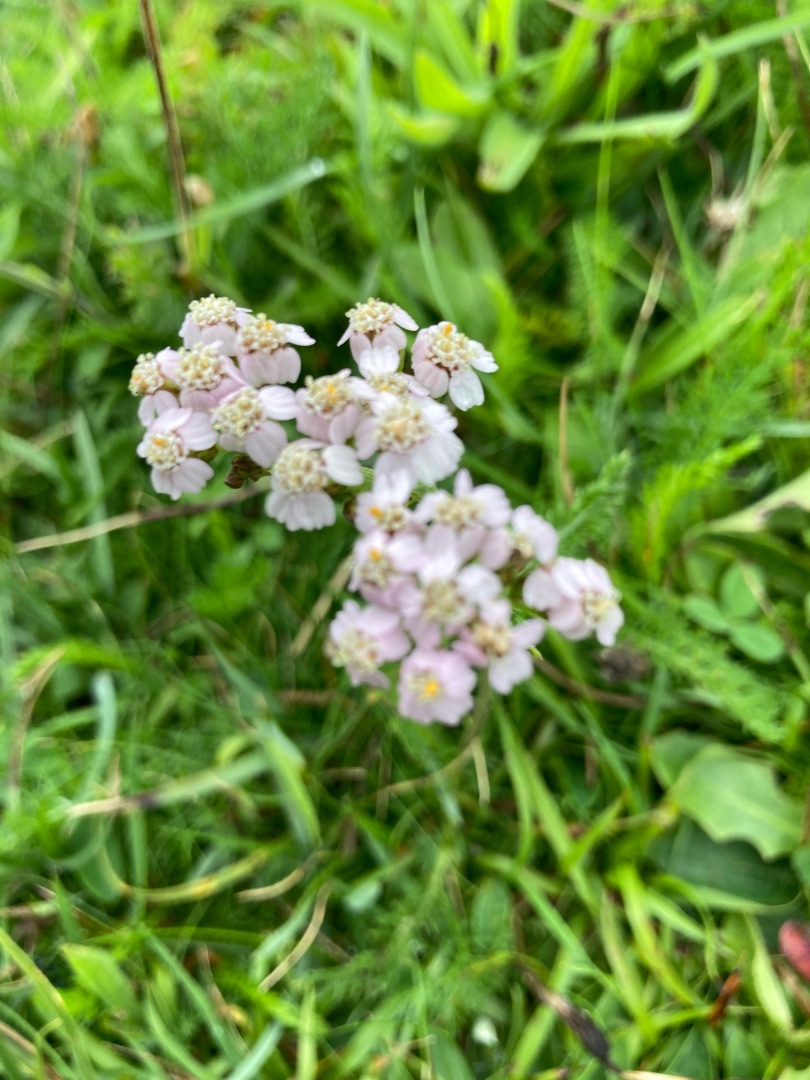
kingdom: Plantae
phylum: Tracheophyta
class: Magnoliopsida
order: Asterales
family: Asteraceae
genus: Achillea
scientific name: Achillea millefolium
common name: Almindelig røllike
